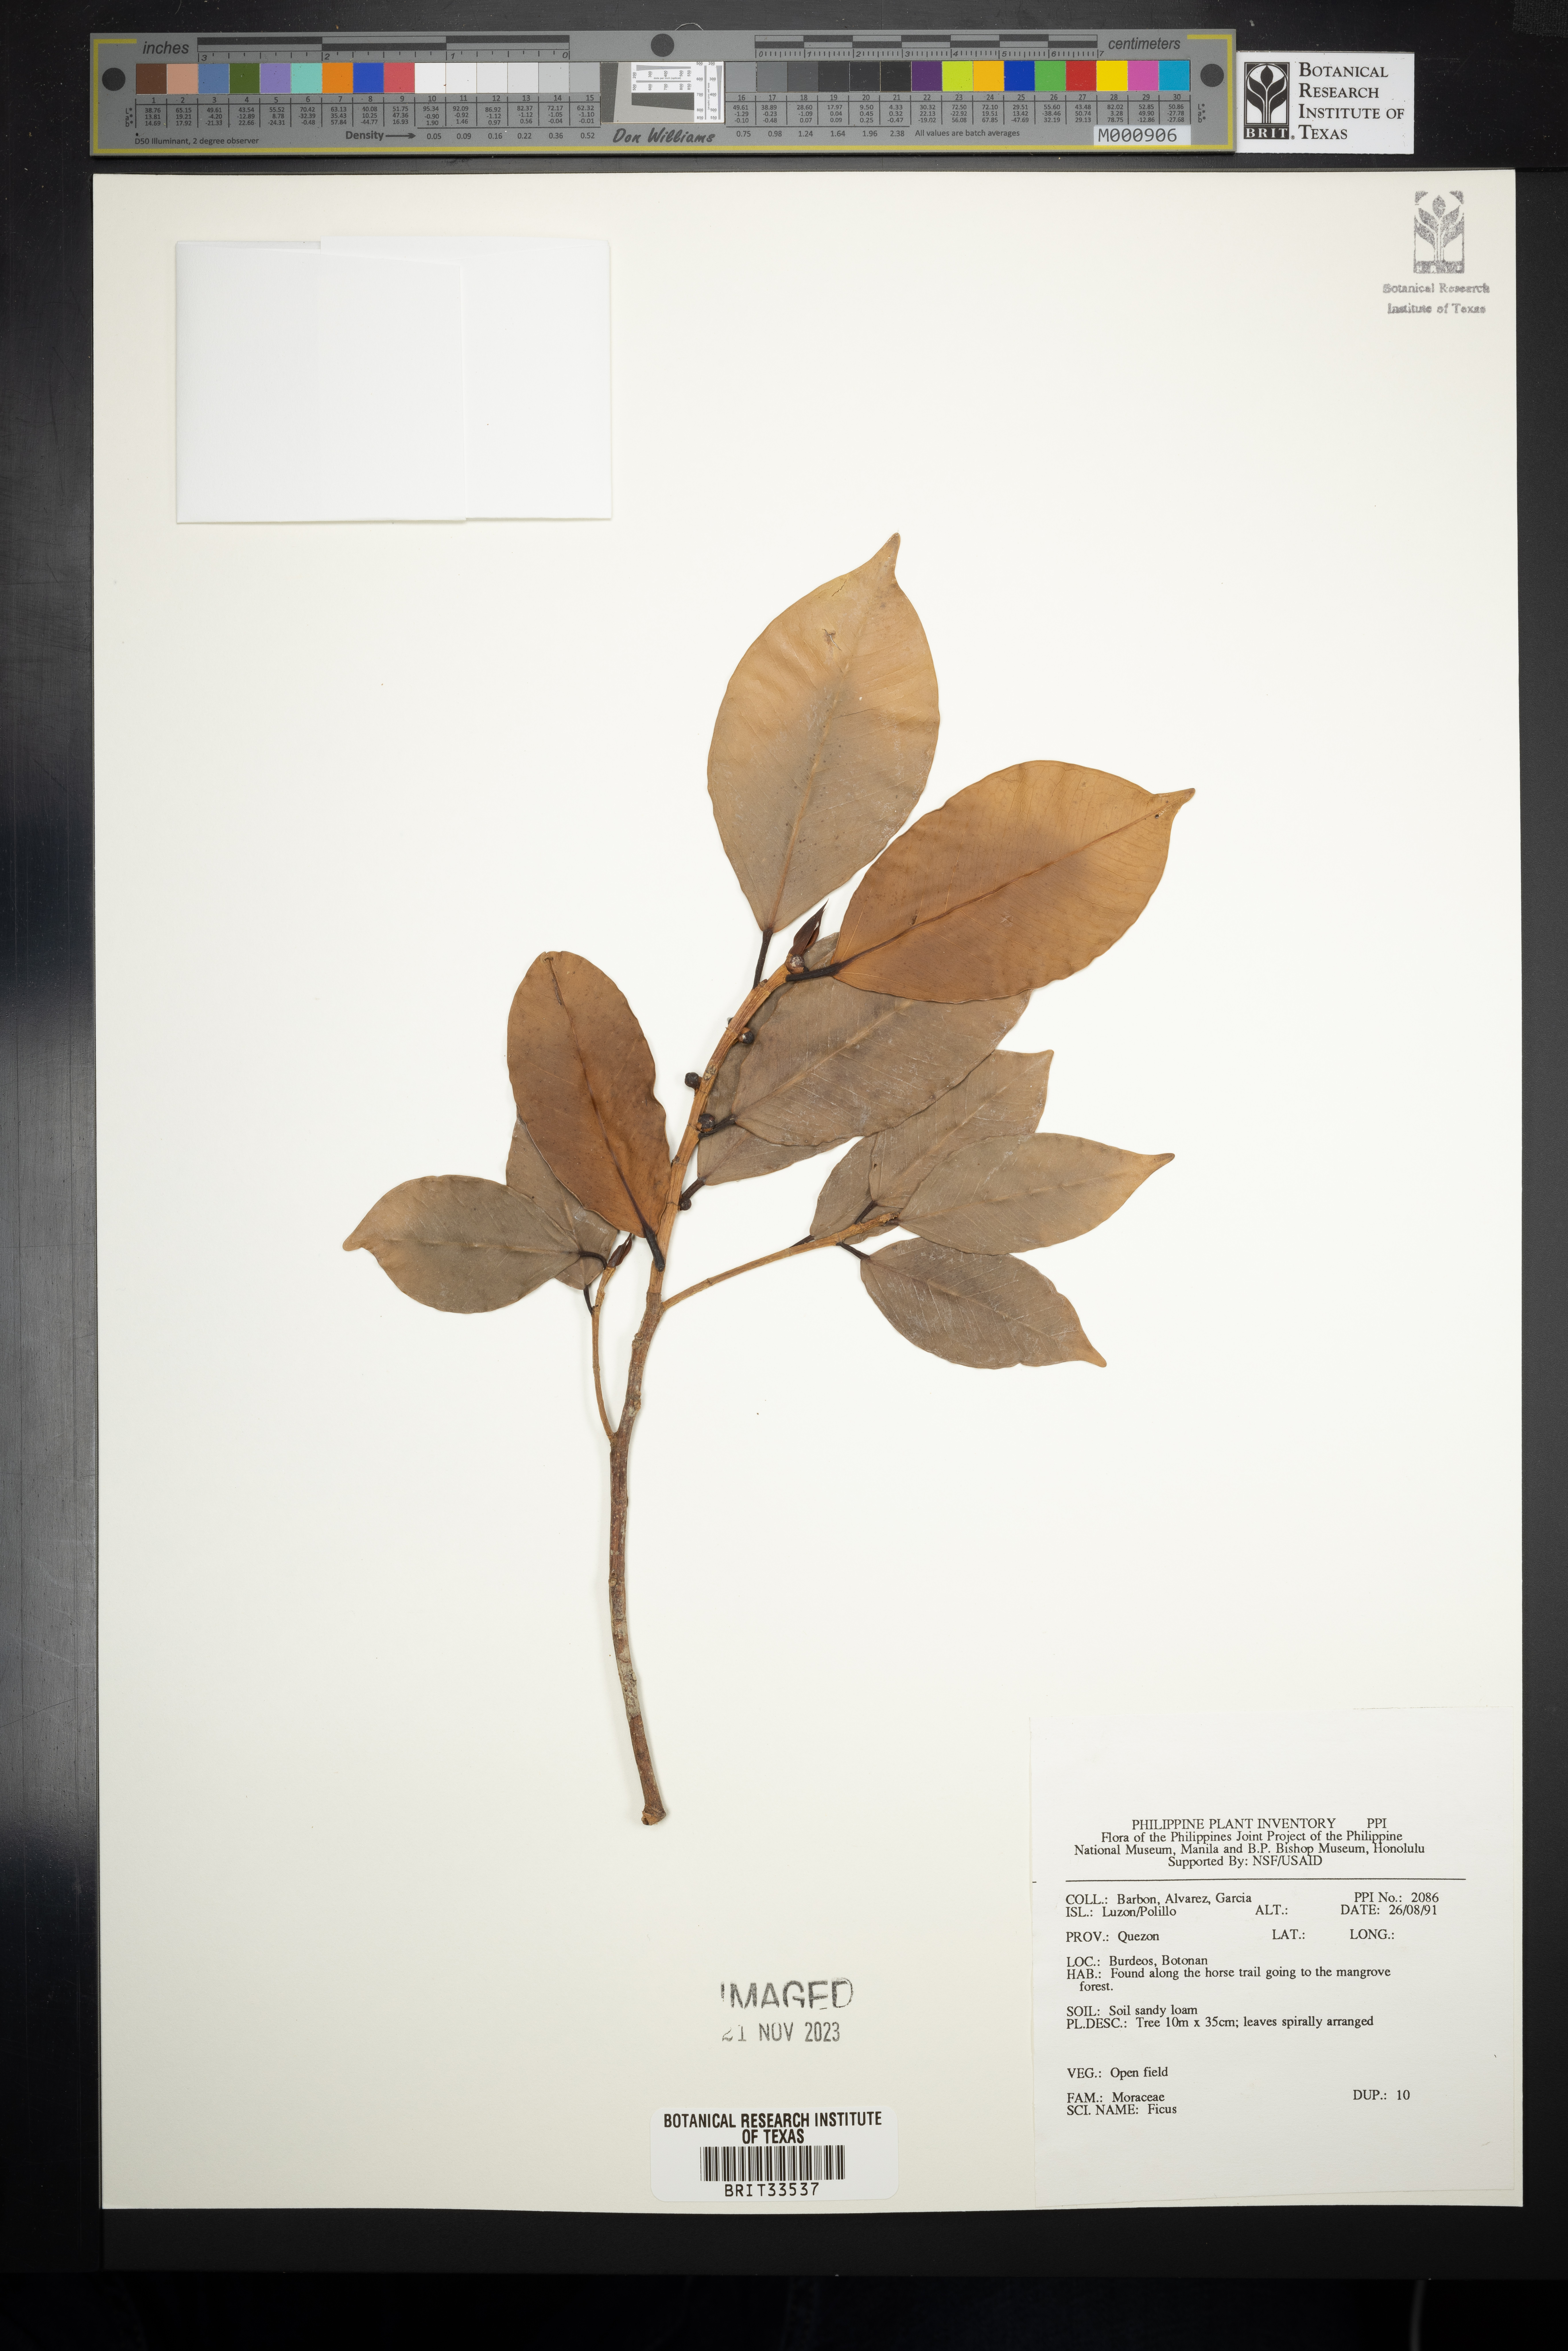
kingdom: Plantae
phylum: Tracheophyta
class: Magnoliopsida
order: Rosales
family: Moraceae
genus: Ficus
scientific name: Ficus
